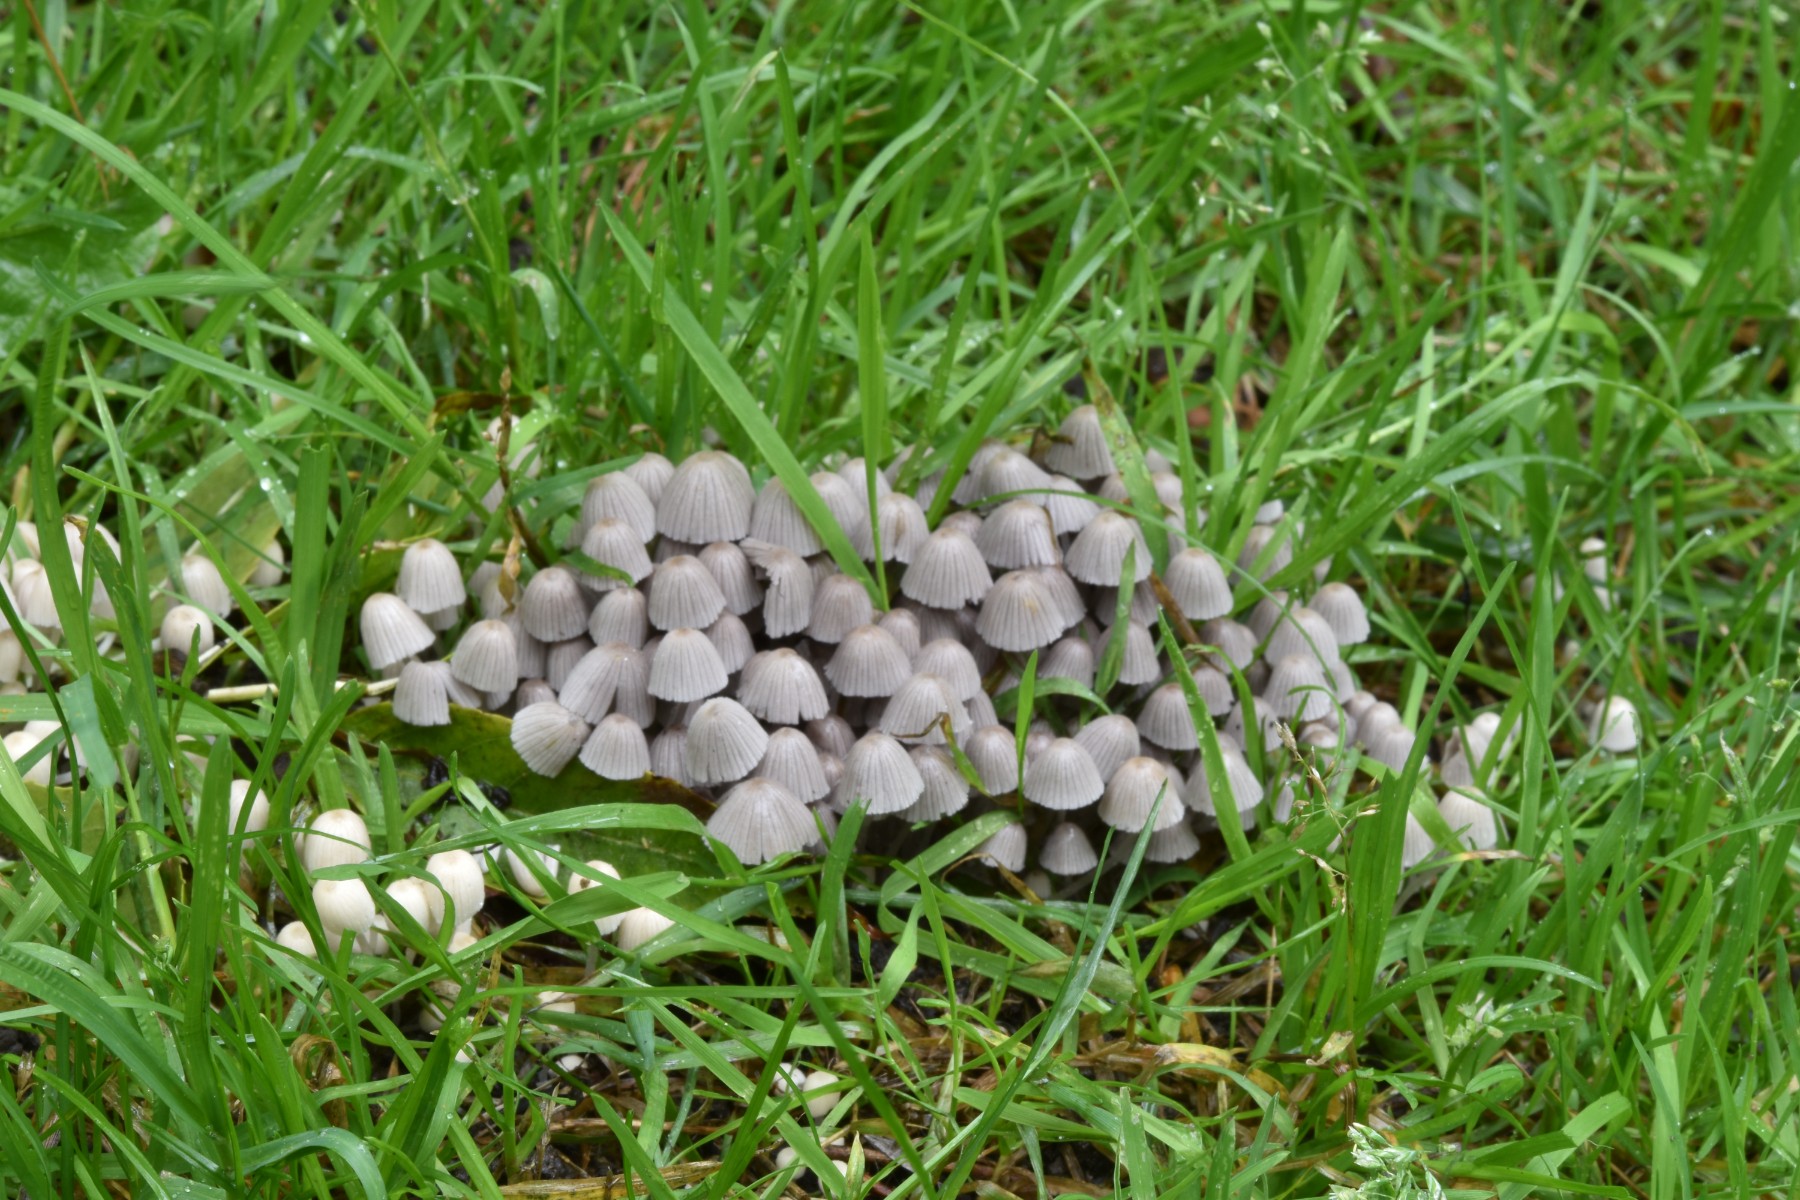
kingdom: Fungi
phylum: Basidiomycota
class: Agaricomycetes
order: Agaricales
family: Psathyrellaceae
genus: Coprinellus
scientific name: Coprinellus disseminatus
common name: bredsået blækhat
